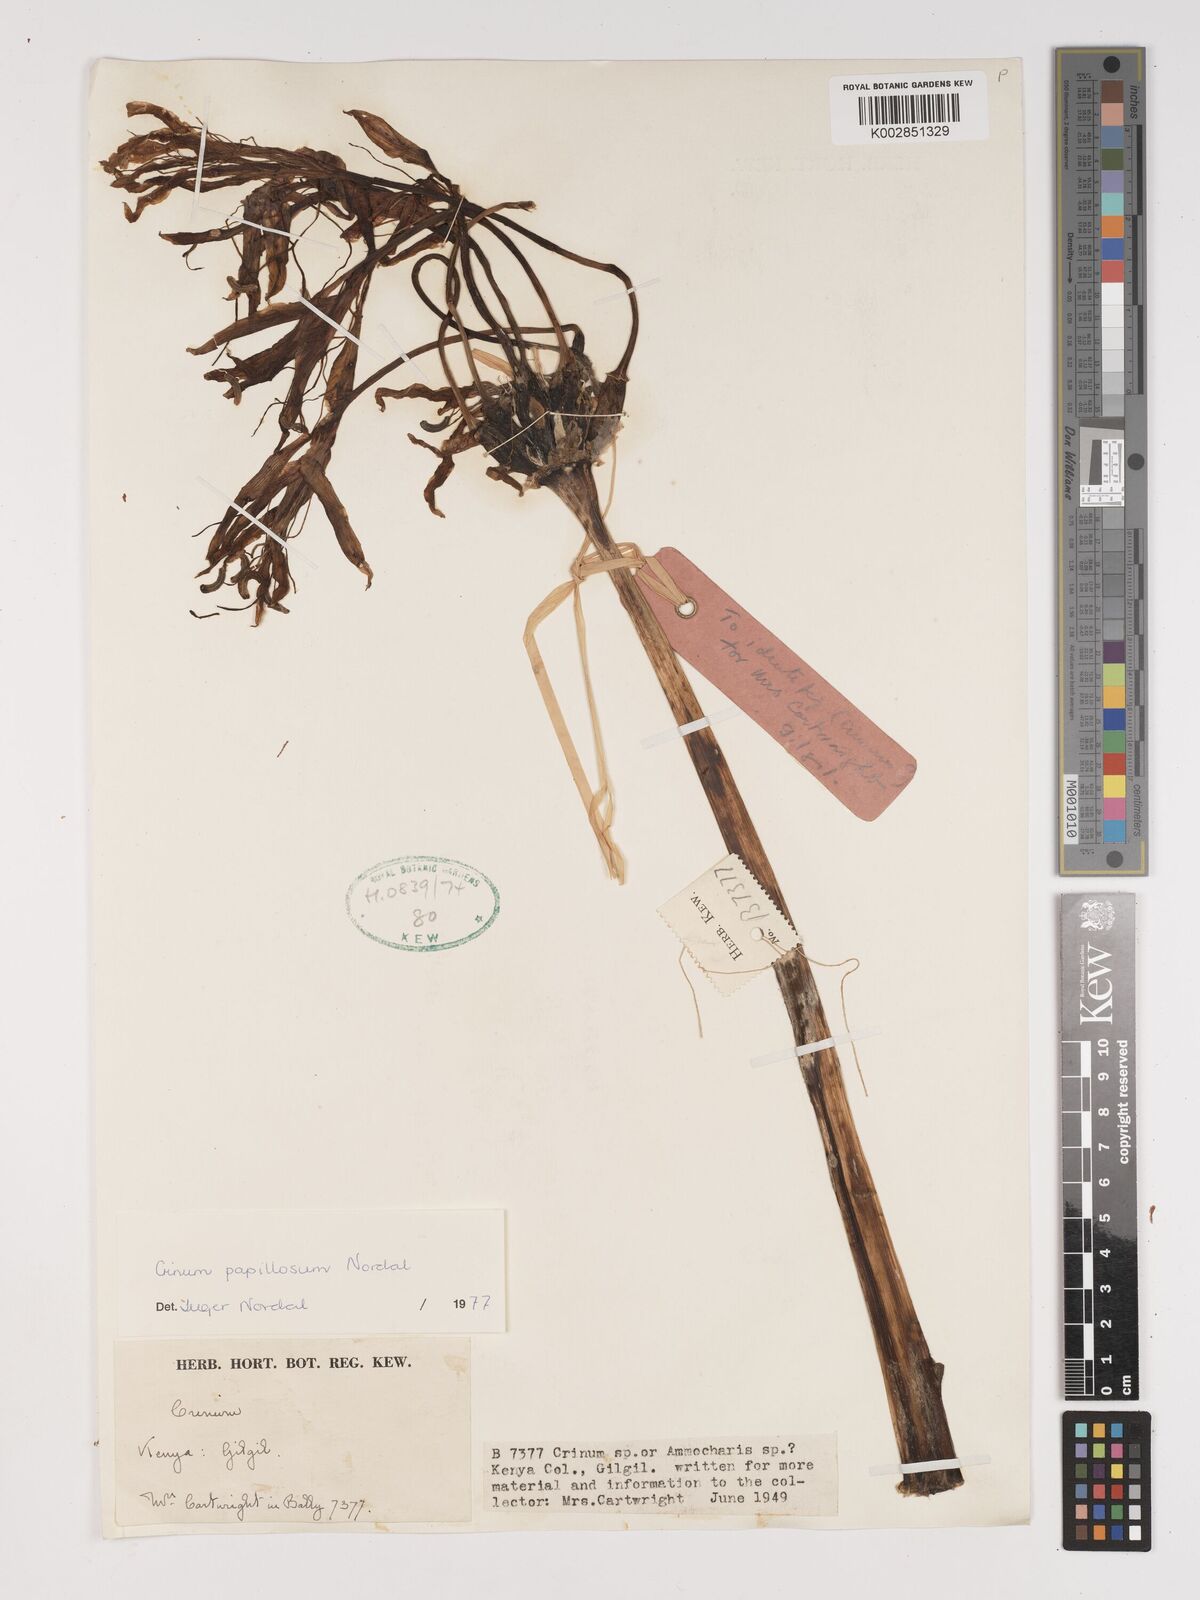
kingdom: Plantae
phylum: Tracheophyta
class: Liliopsida
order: Asparagales
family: Amaryllidaceae
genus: Crinum
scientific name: Crinum papillosum
